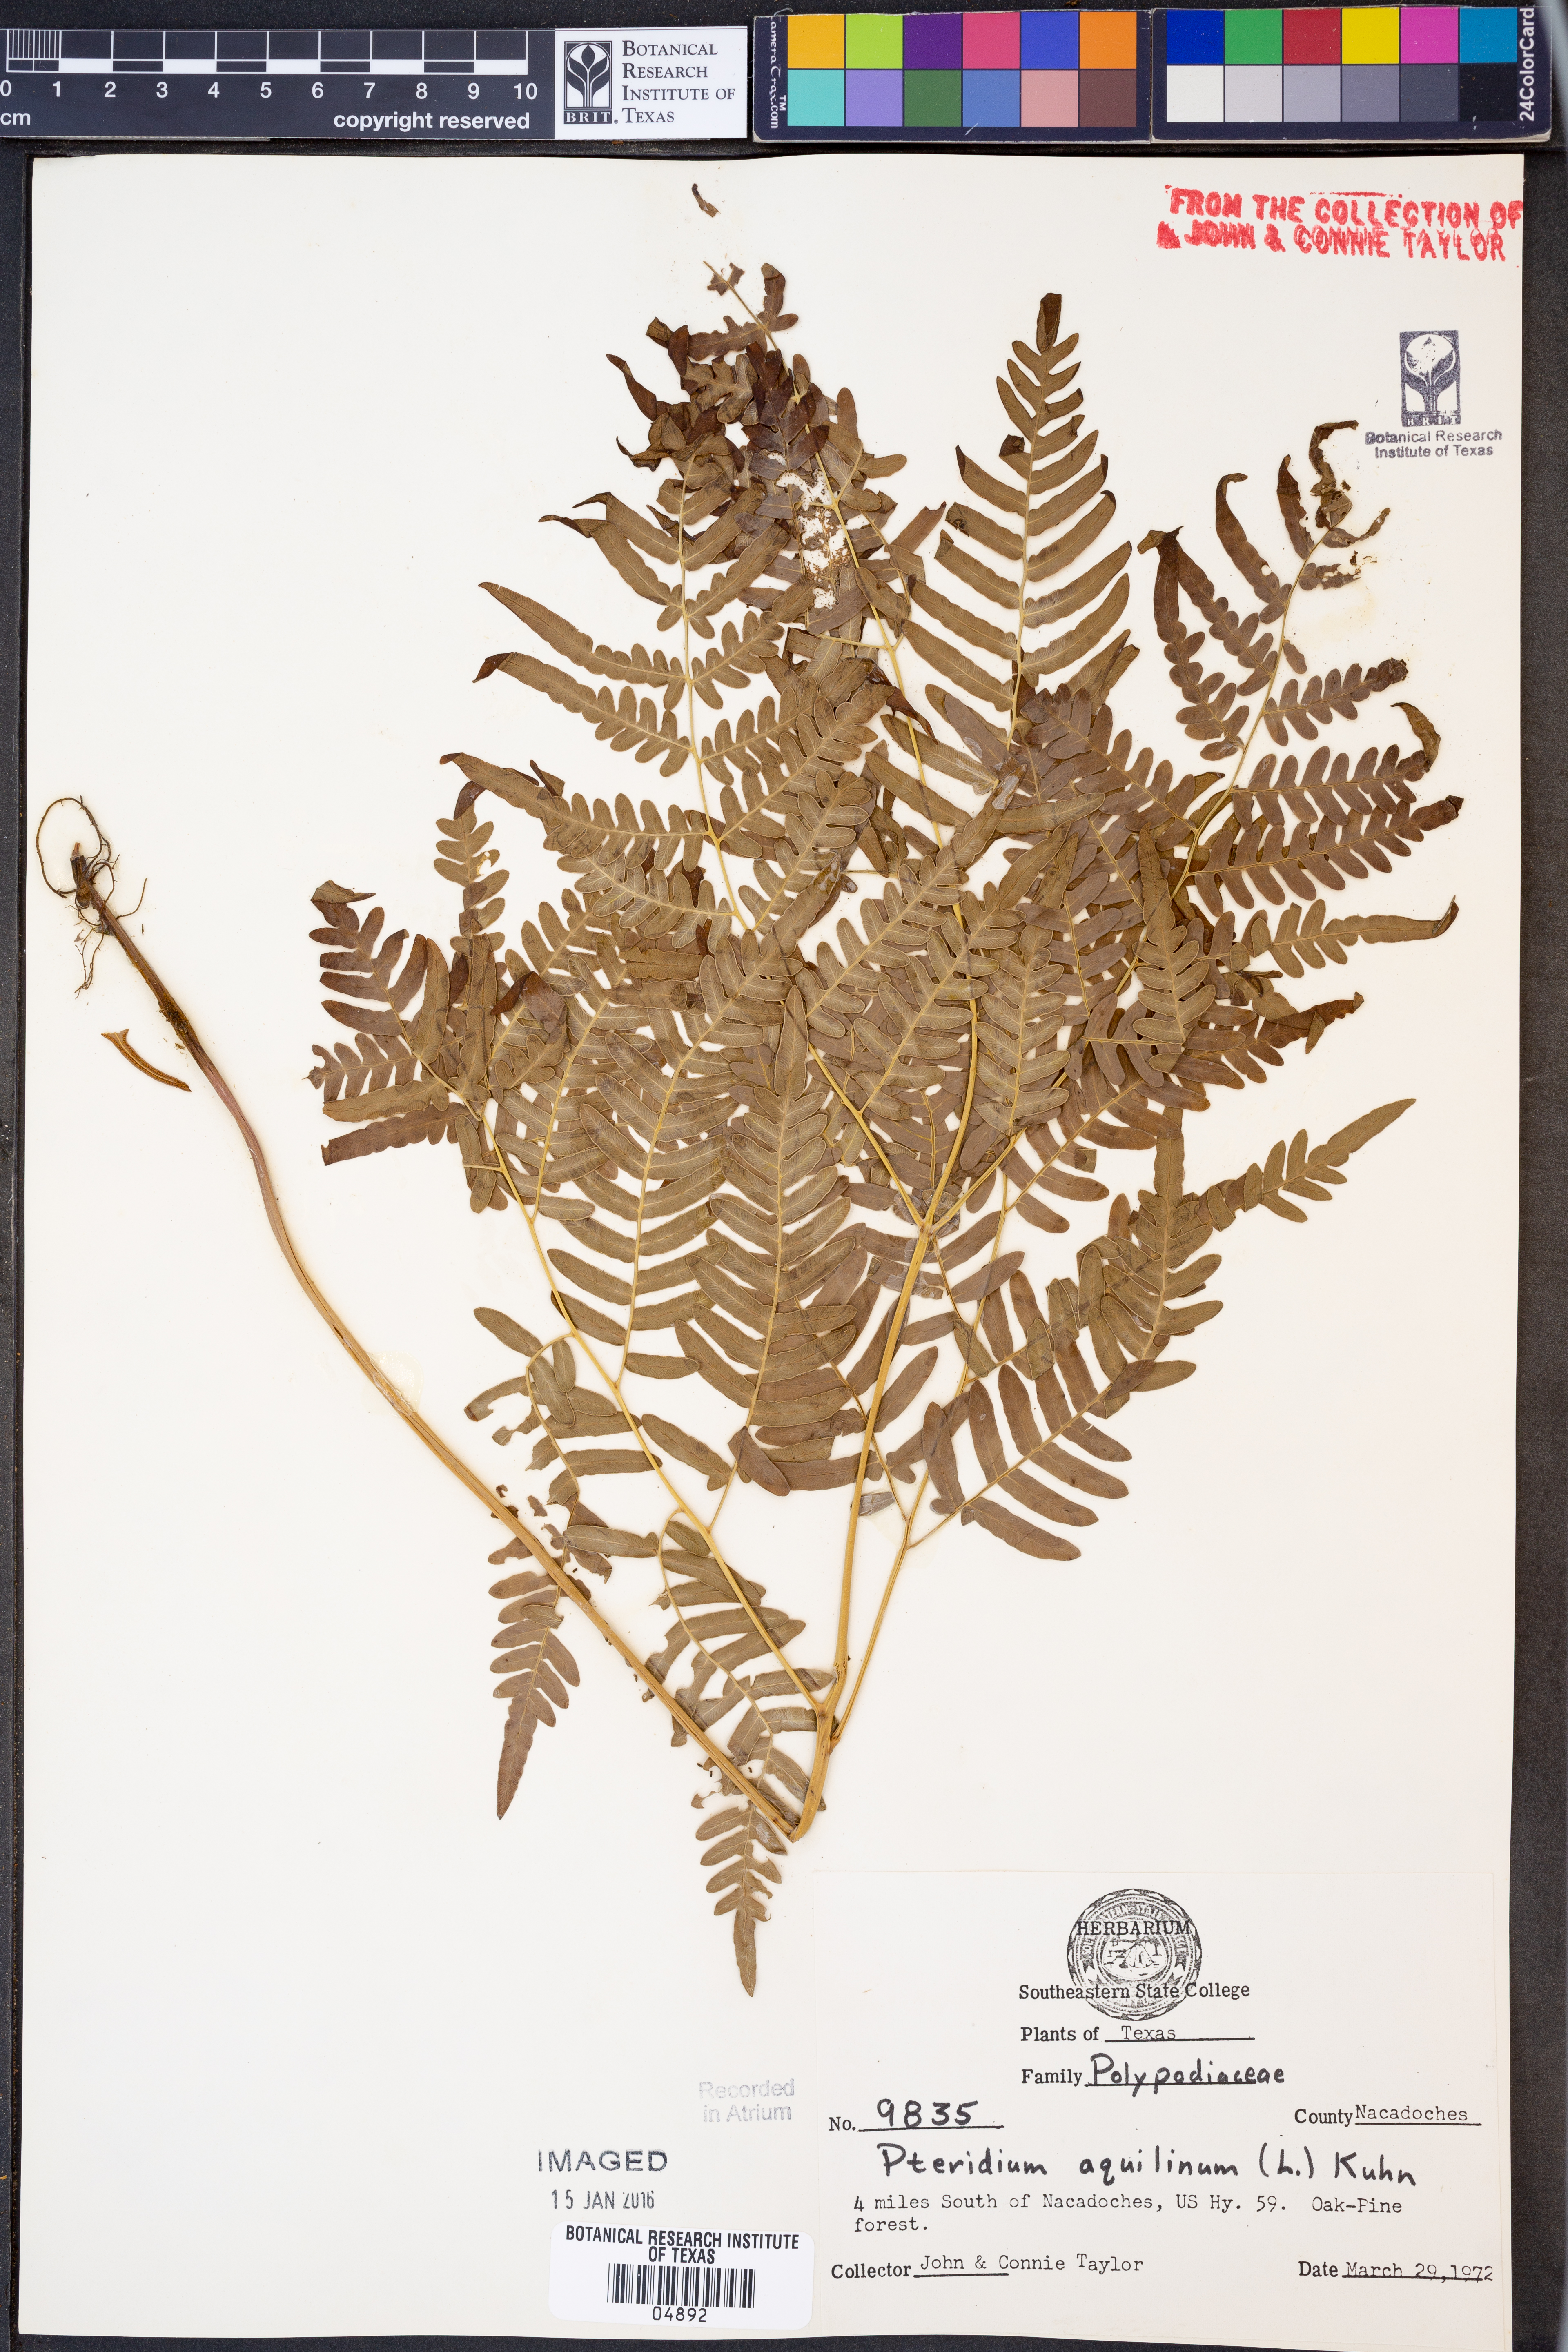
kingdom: Plantae
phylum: Tracheophyta
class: Polypodiopsida
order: Polypodiales
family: Dennstaedtiaceae
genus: Pteridium
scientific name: Pteridium aquilinum
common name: Bracken
